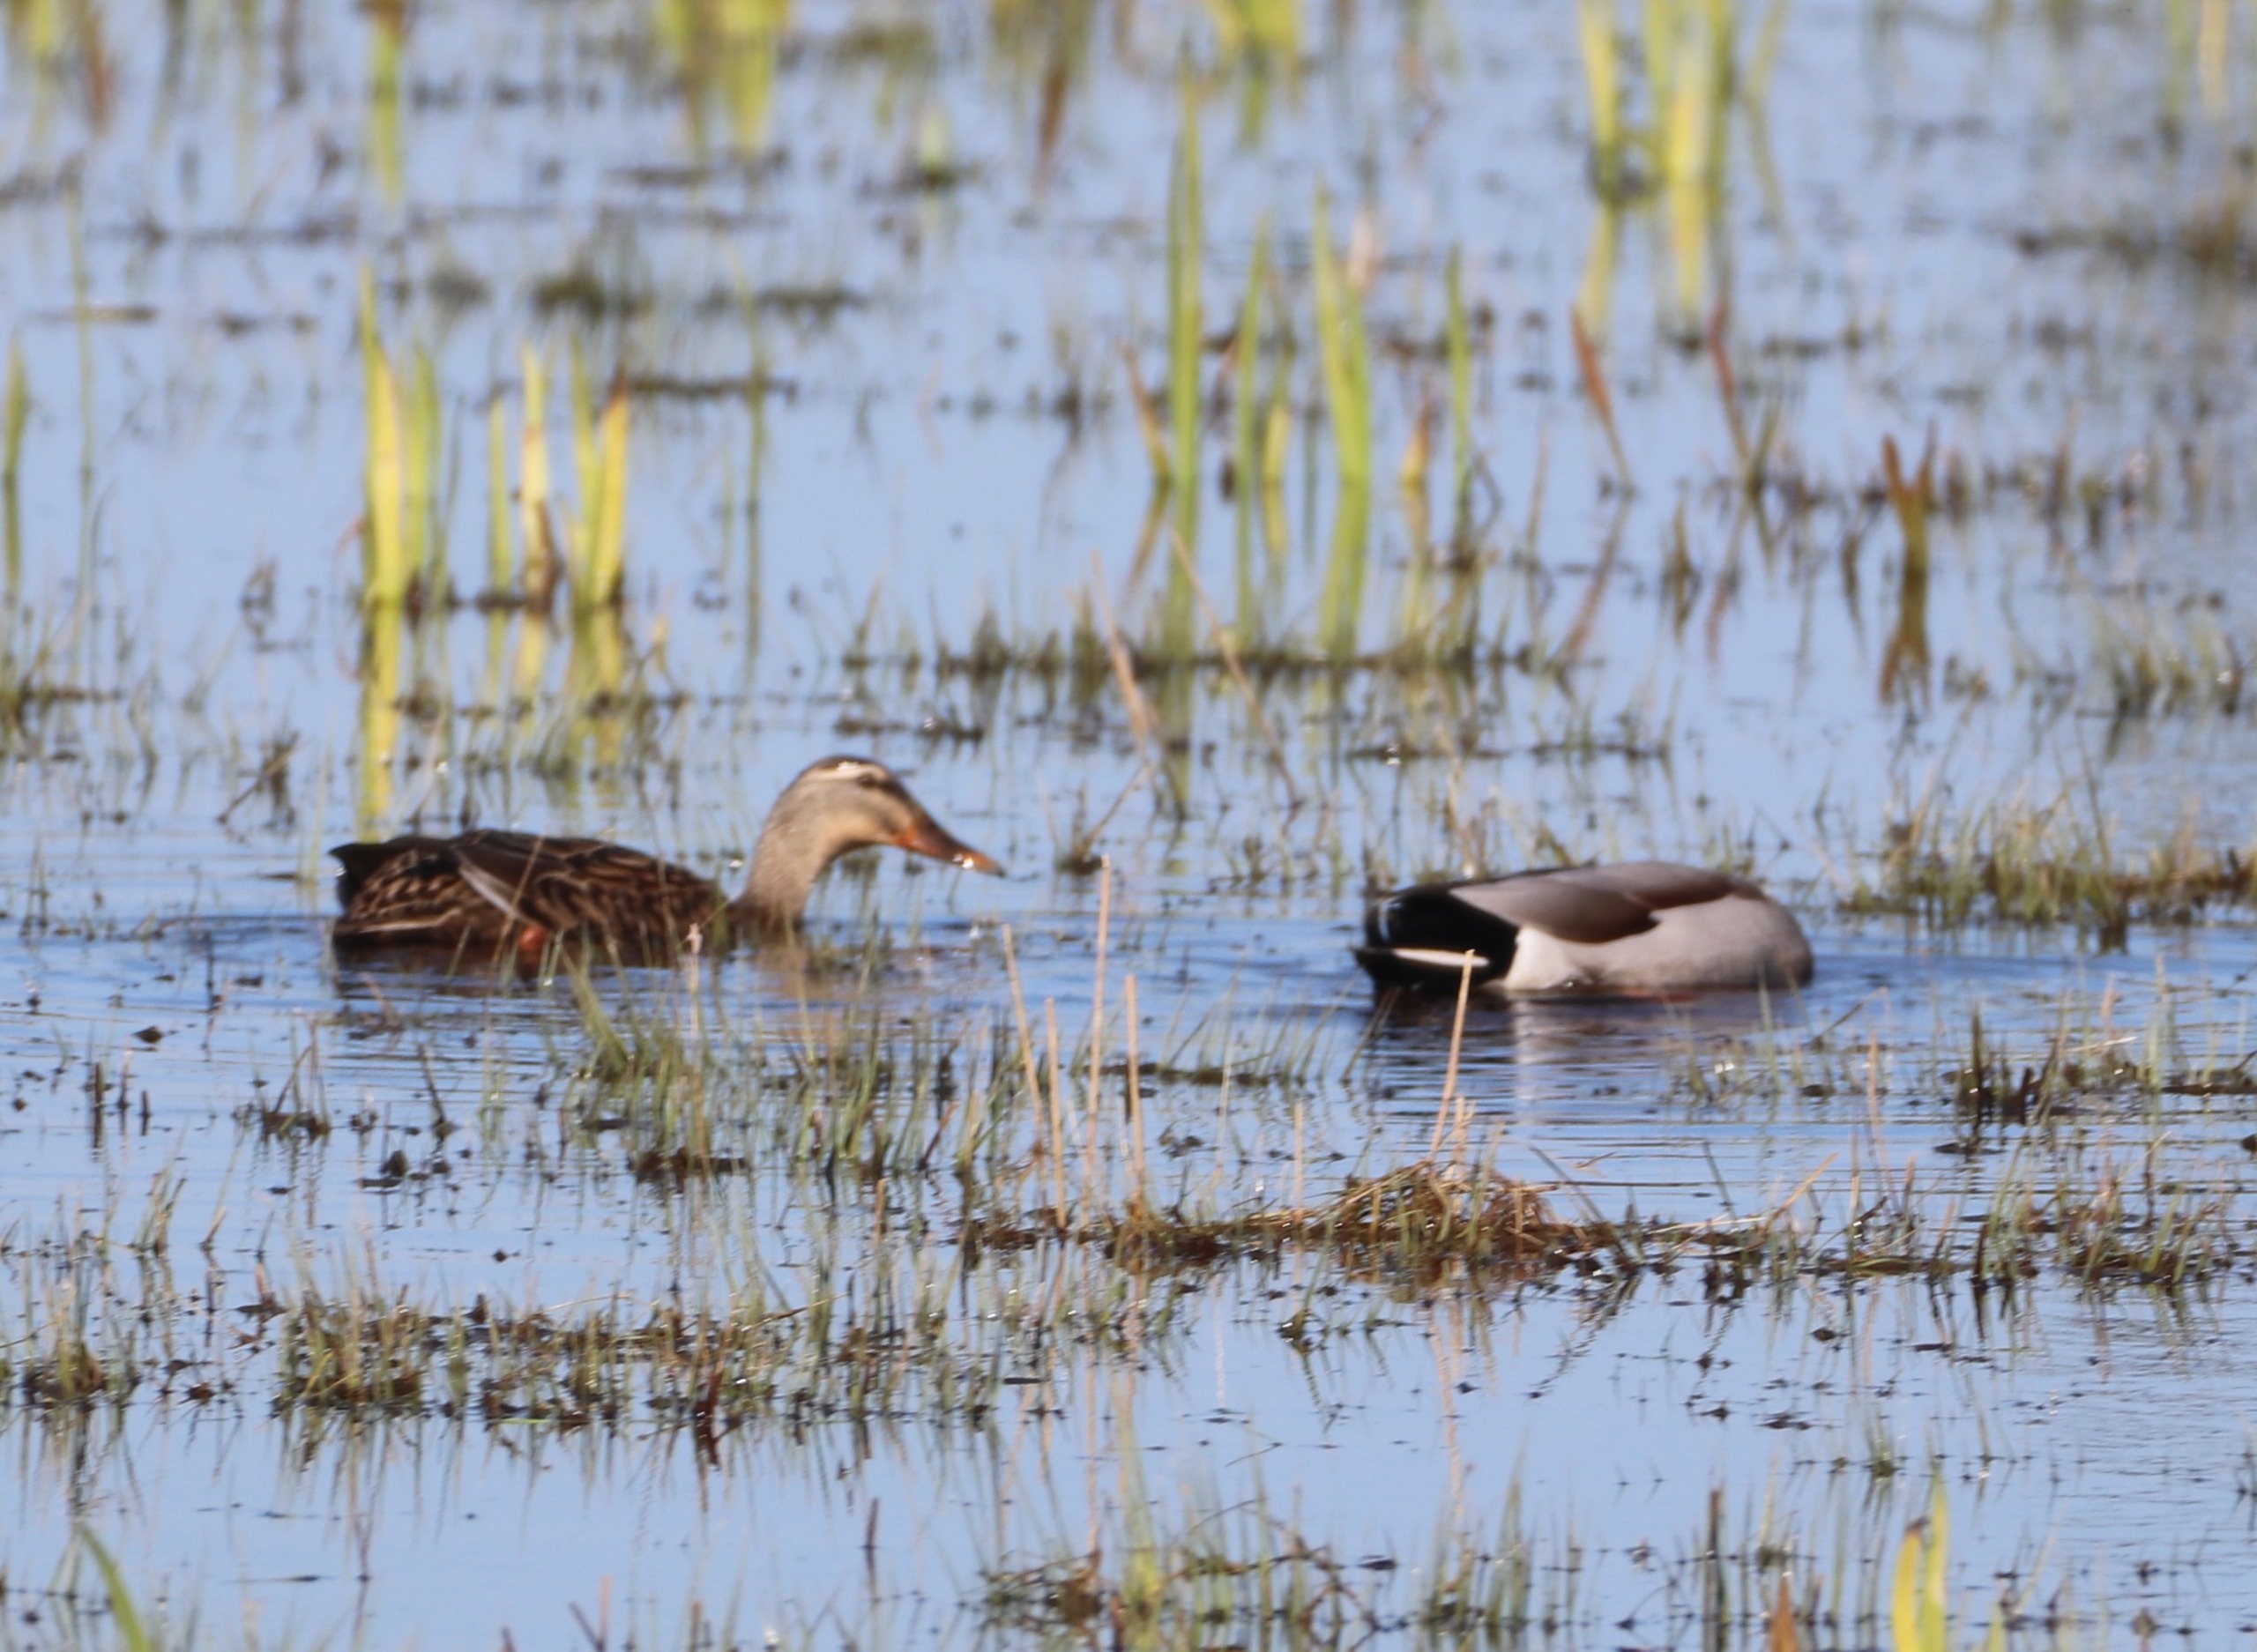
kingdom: Animalia
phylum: Chordata
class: Aves
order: Anseriformes
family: Anatidae
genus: Anas
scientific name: Anas platyrhynchos
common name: Gråand
